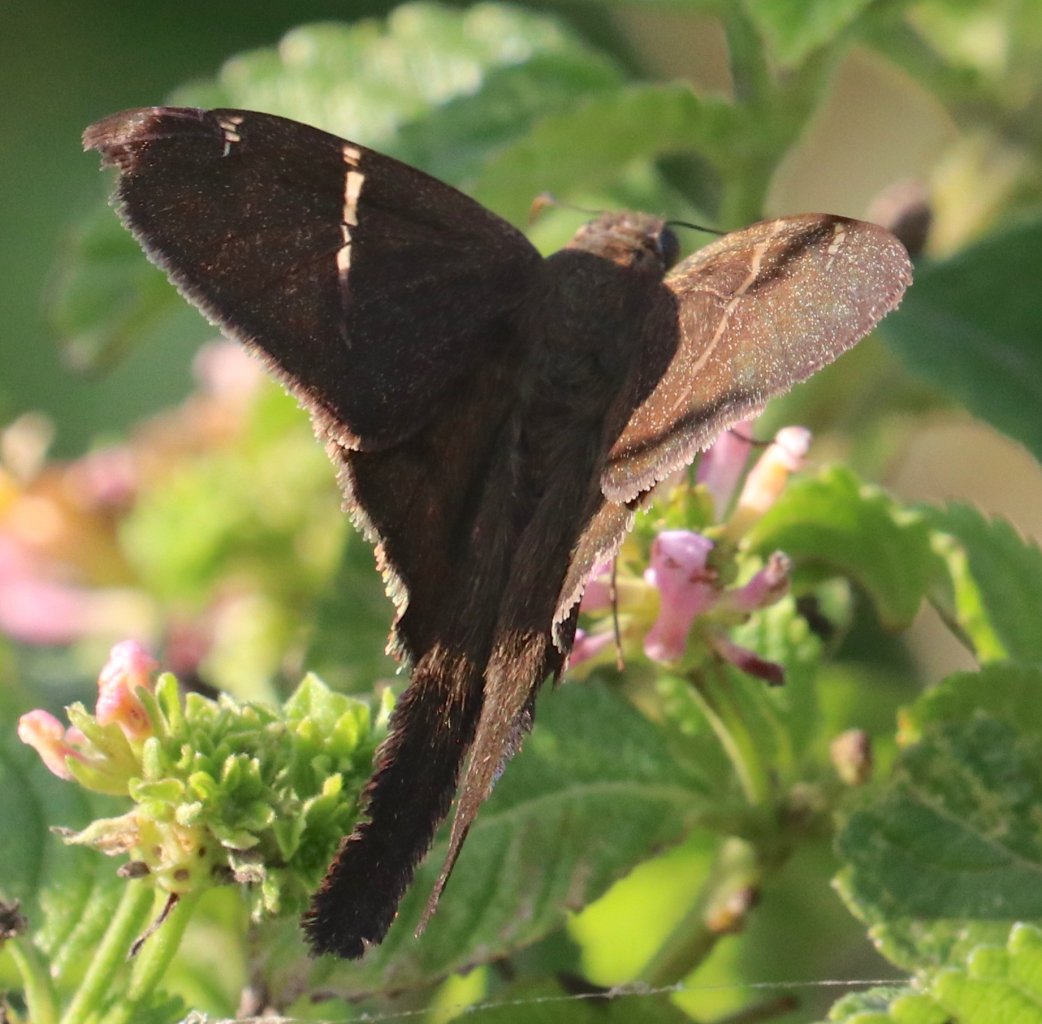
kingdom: Animalia
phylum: Arthropoda
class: Insecta
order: Lepidoptera
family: Hesperiidae
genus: Urbanus
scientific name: Urbanus procne
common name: Brown Longtail
